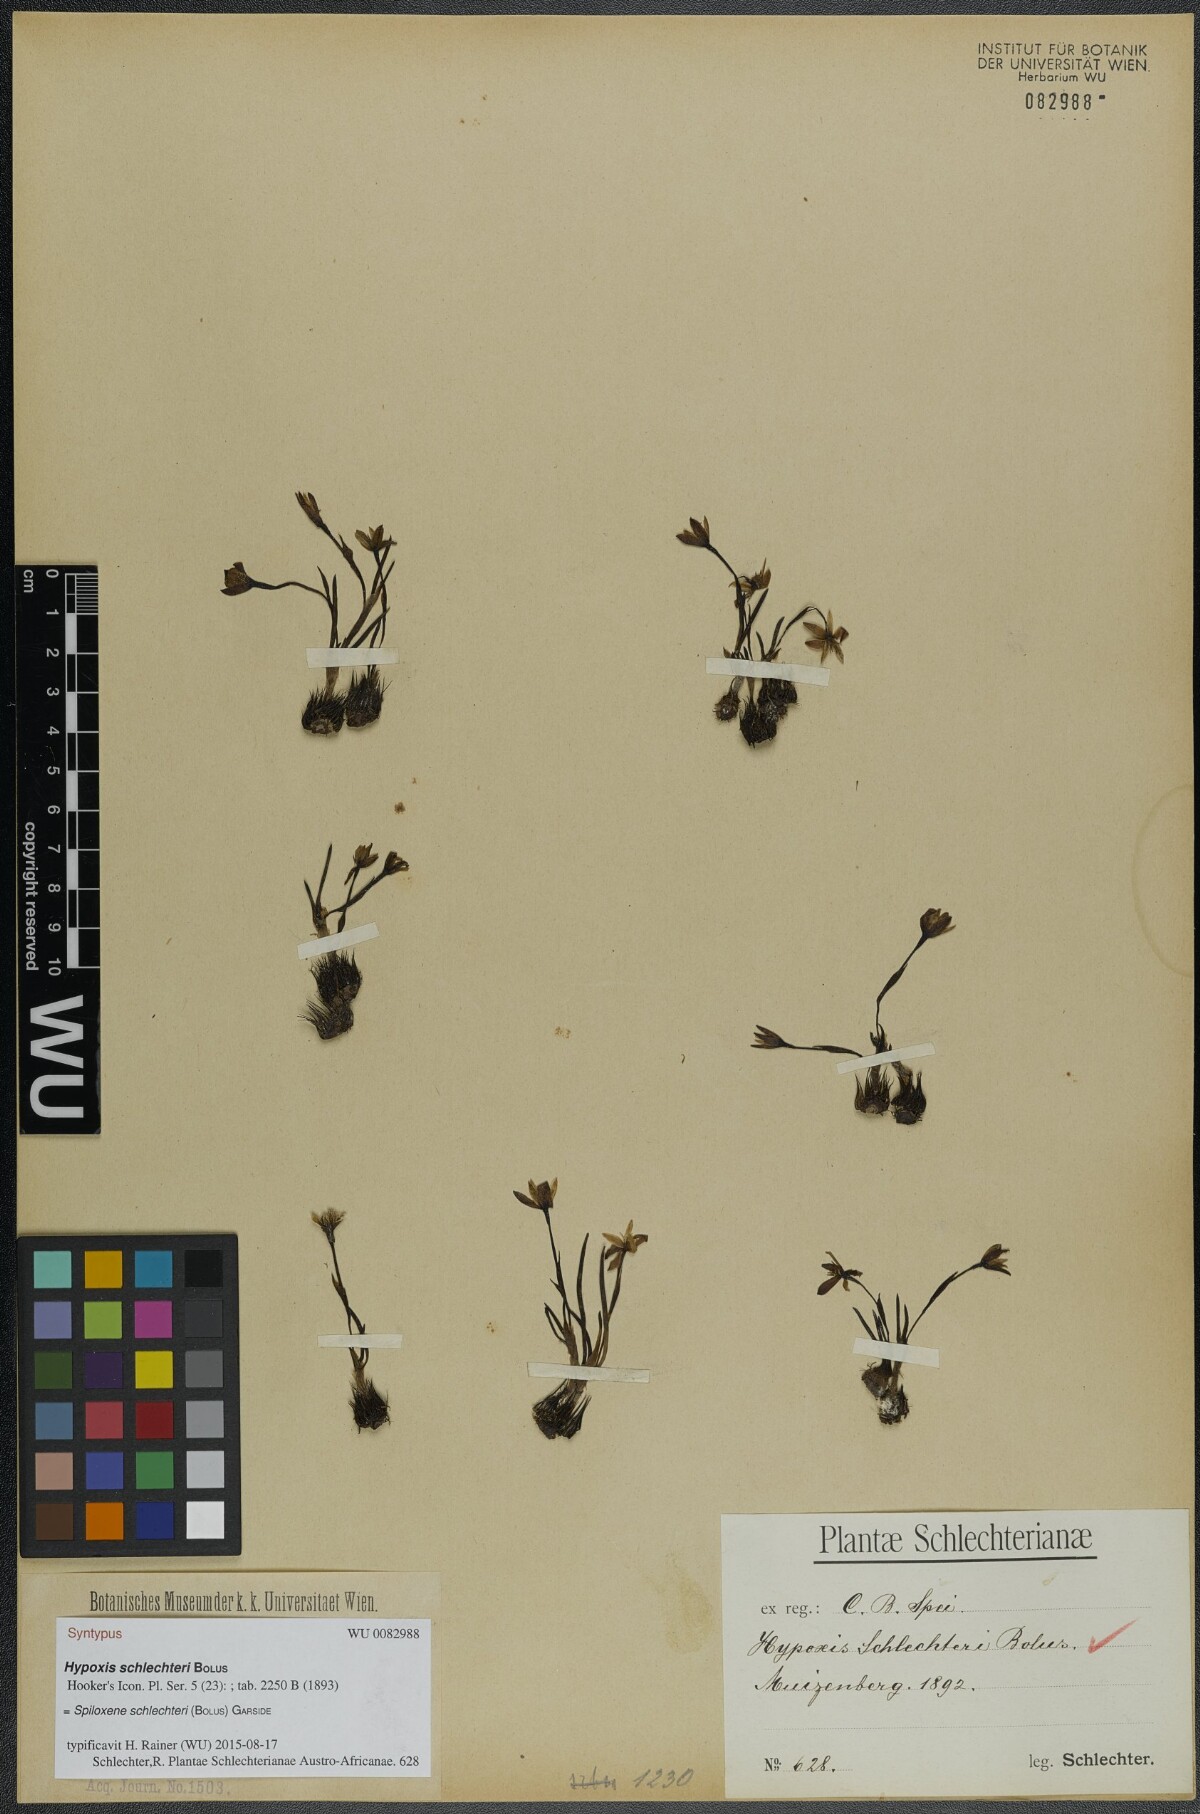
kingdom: Plantae
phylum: Tracheophyta
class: Liliopsida
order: Asparagales
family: Hypoxidaceae
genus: Pauridia
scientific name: Pauridia affinis
